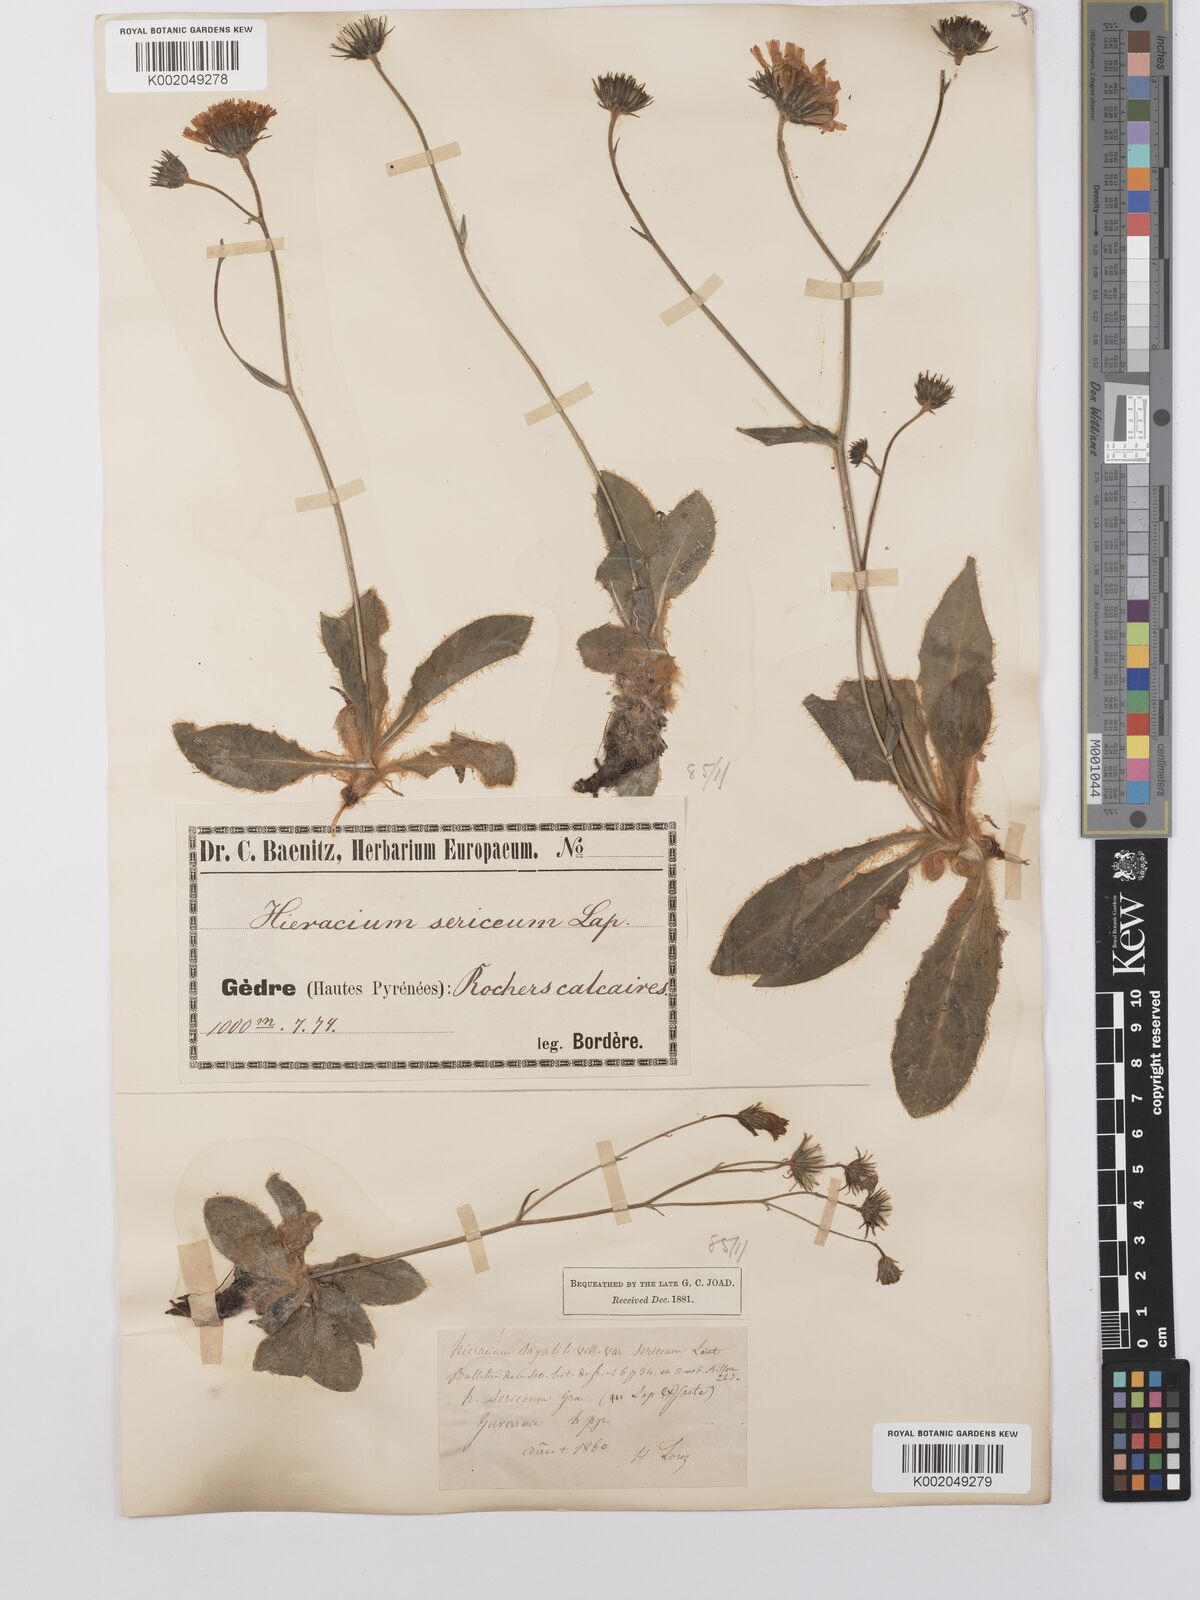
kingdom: Plantae
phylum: Tracheophyta
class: Magnoliopsida
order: Asterales
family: Asteraceae
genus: Hieracium
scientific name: Hieracium
